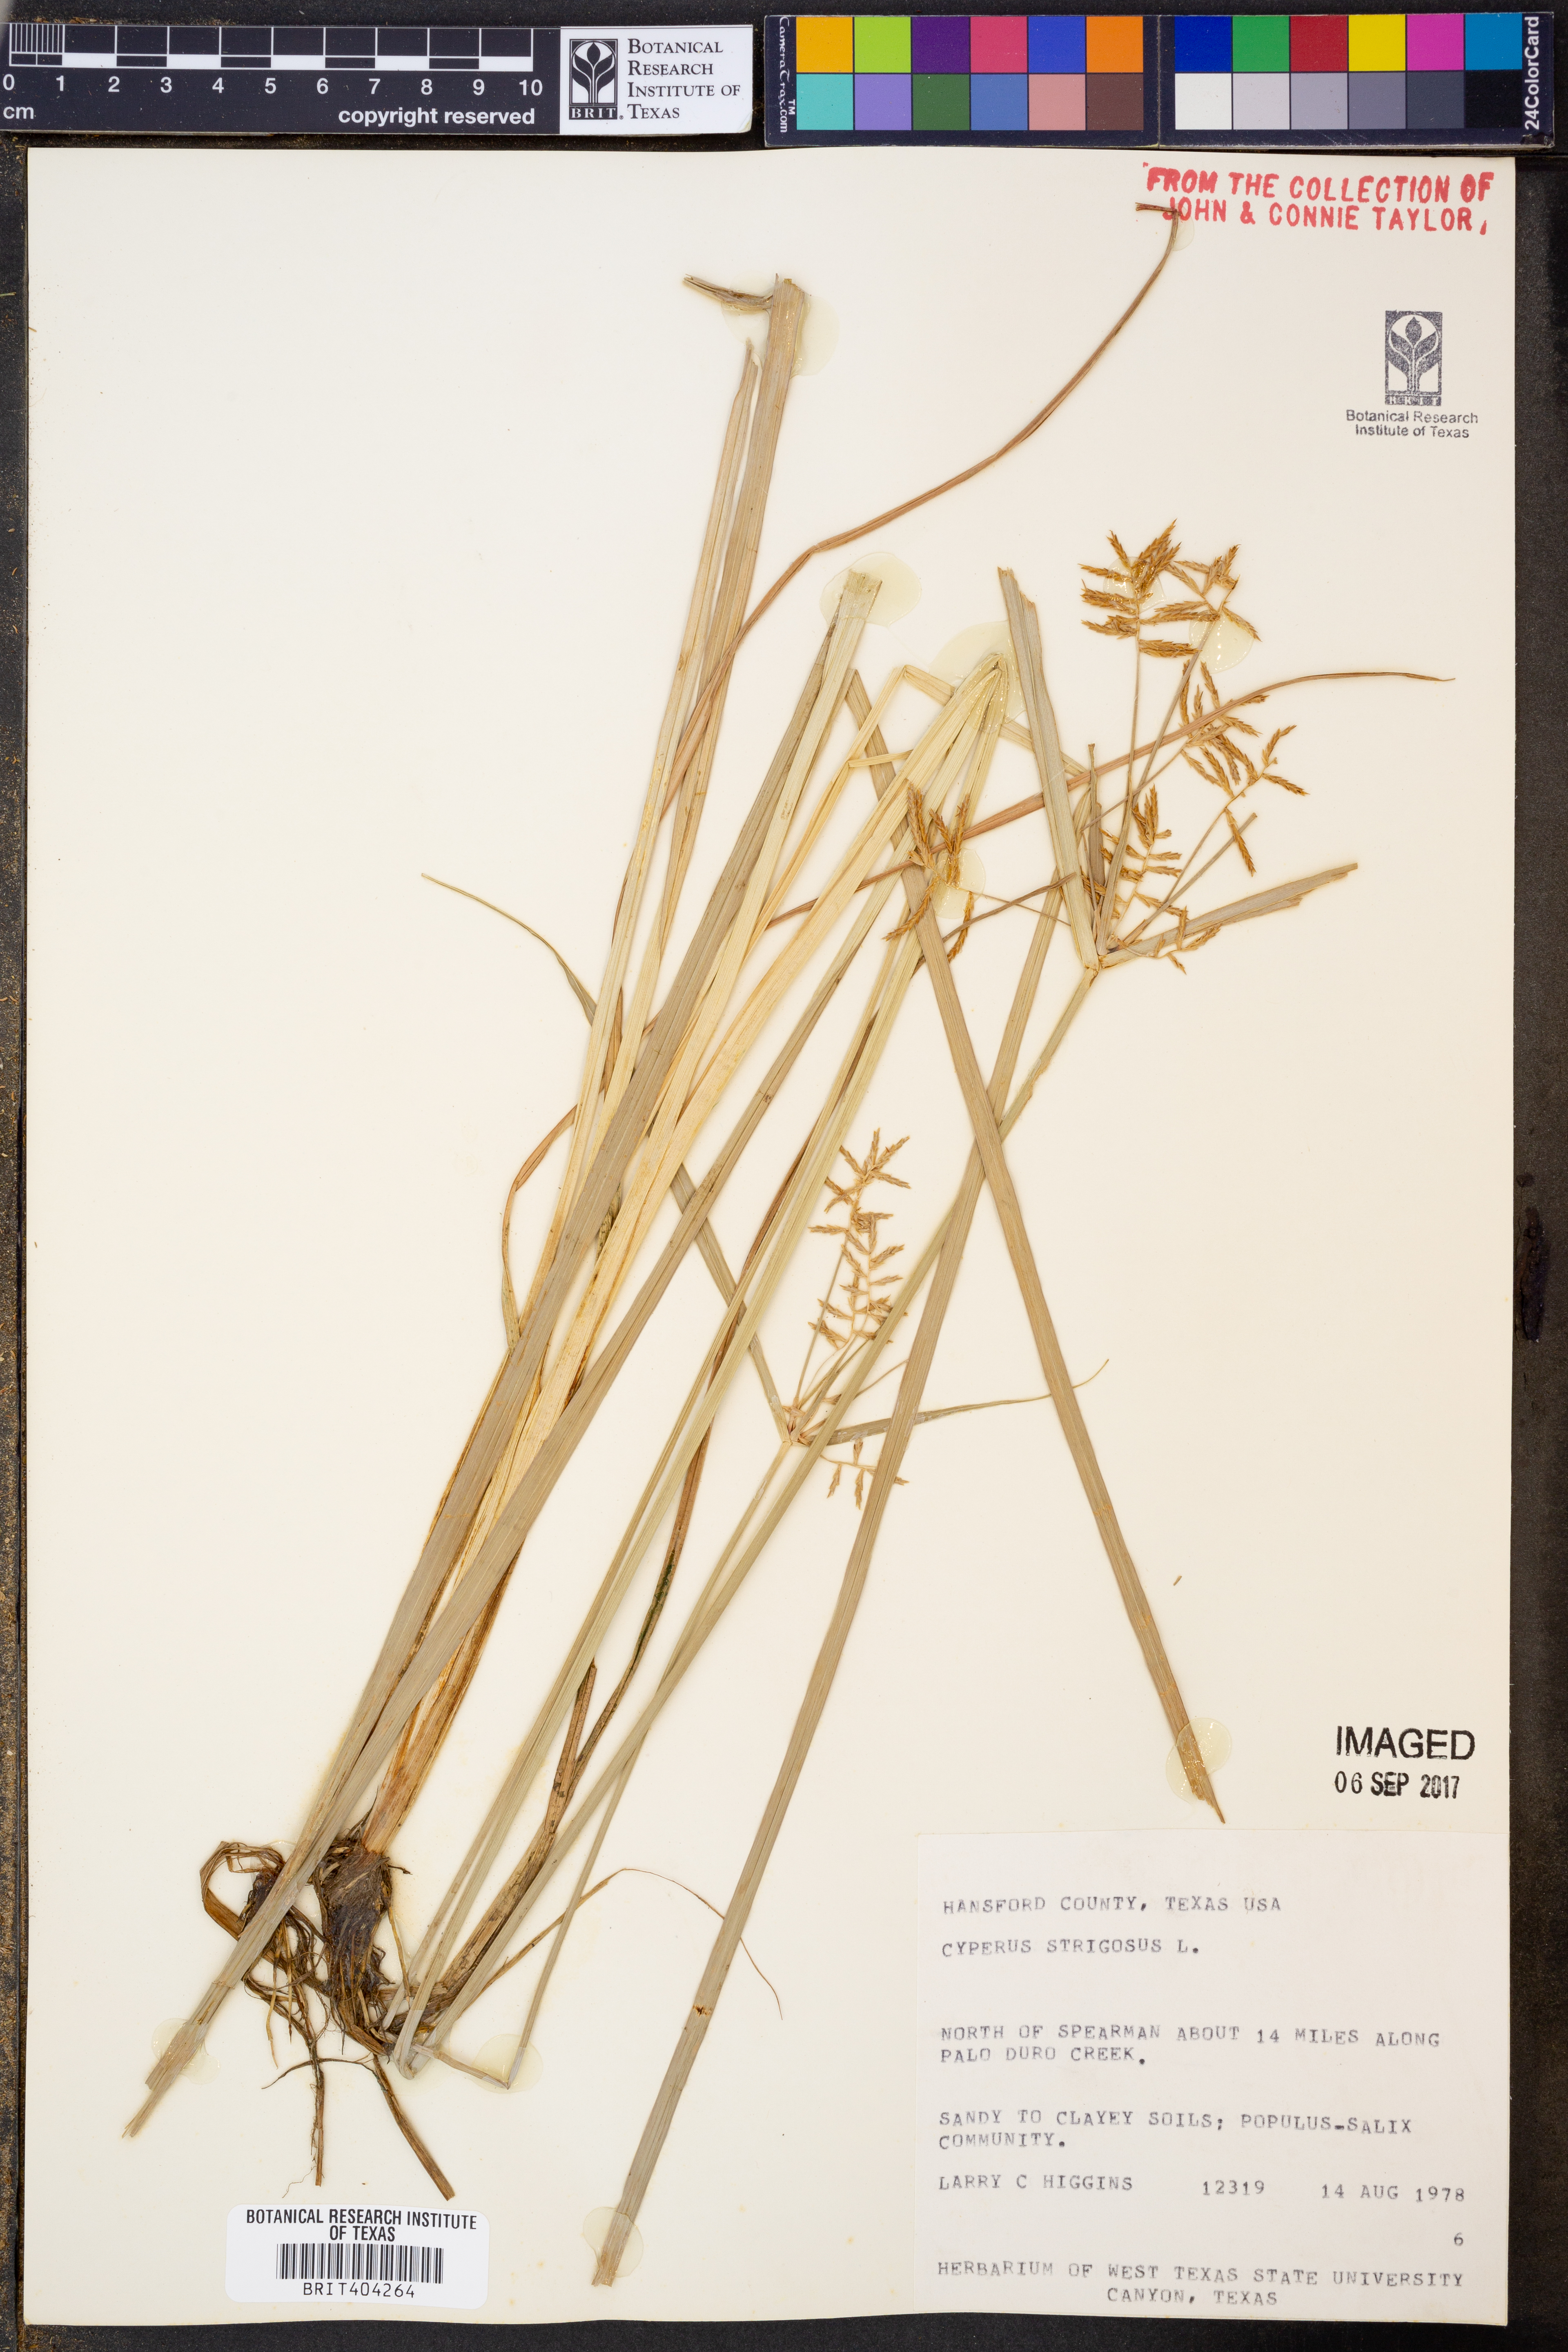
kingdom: Plantae
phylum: Tracheophyta
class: Liliopsida
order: Poales
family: Cyperaceae
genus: Cyperus
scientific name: Cyperus strigosus
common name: False nutsedge
